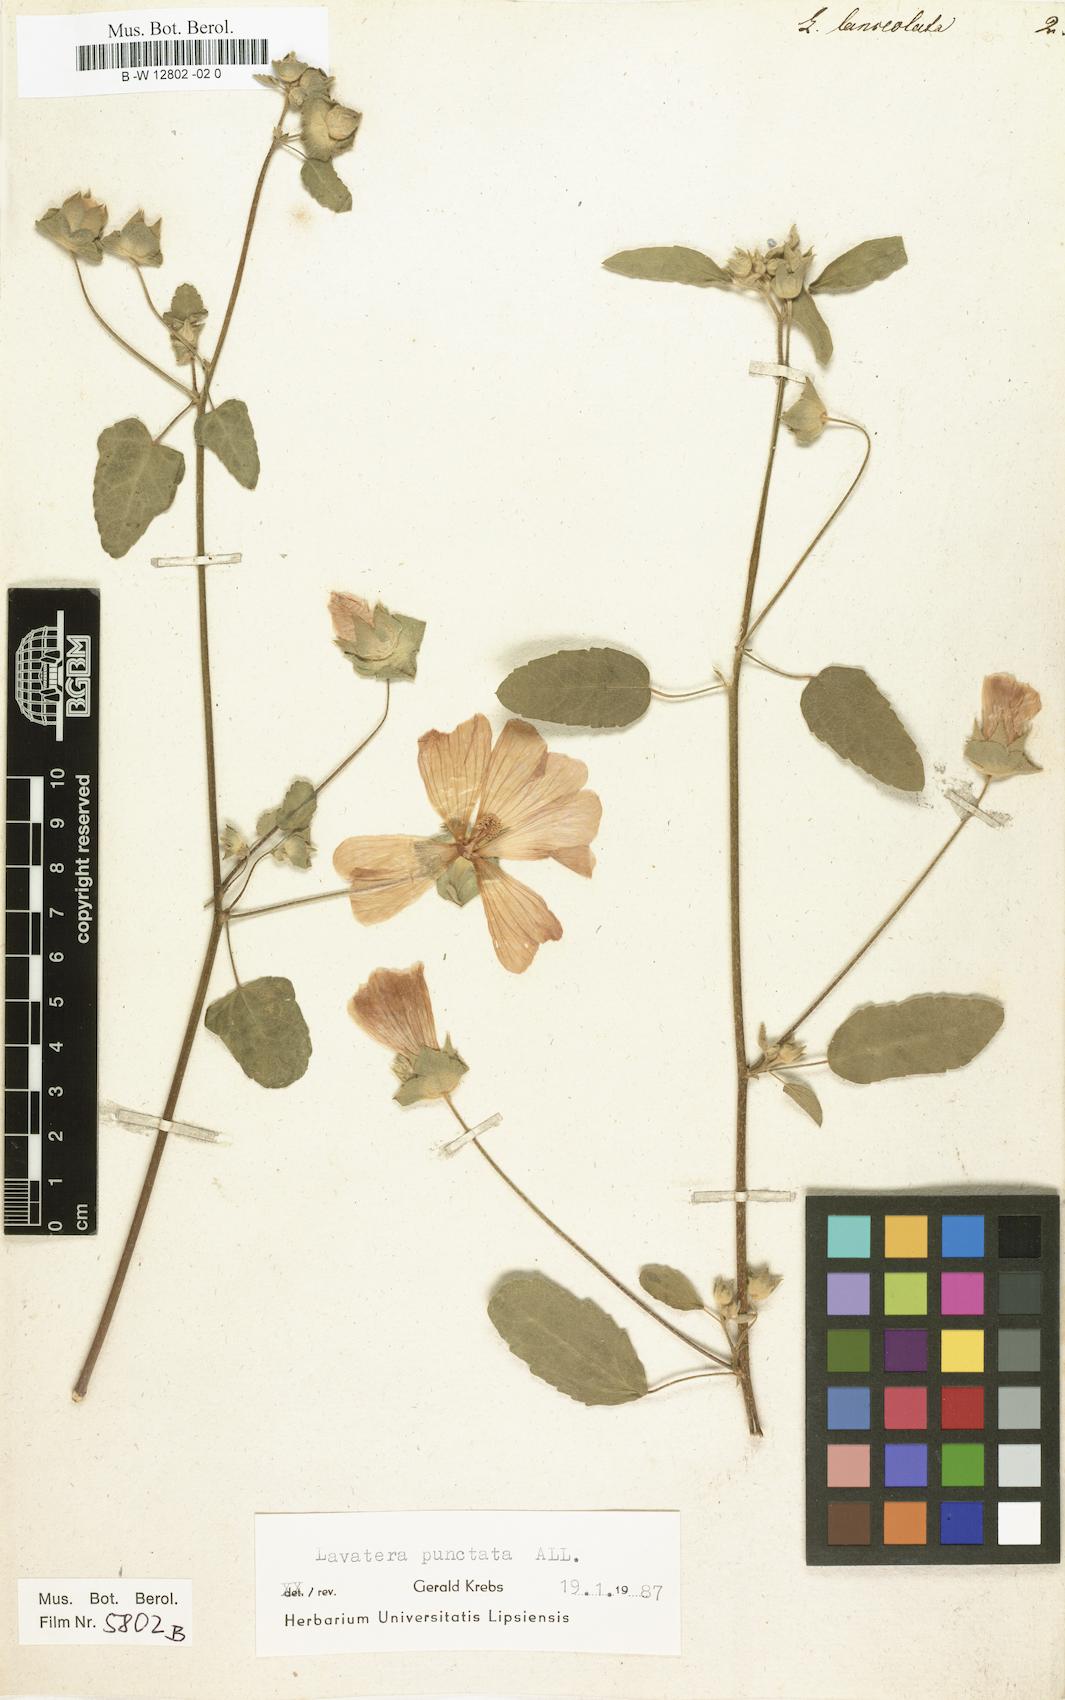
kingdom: Plantae
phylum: Tracheophyta
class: Magnoliopsida
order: Malvales
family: Malvaceae
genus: Malva
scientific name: Malva Lavatera lanceolata
